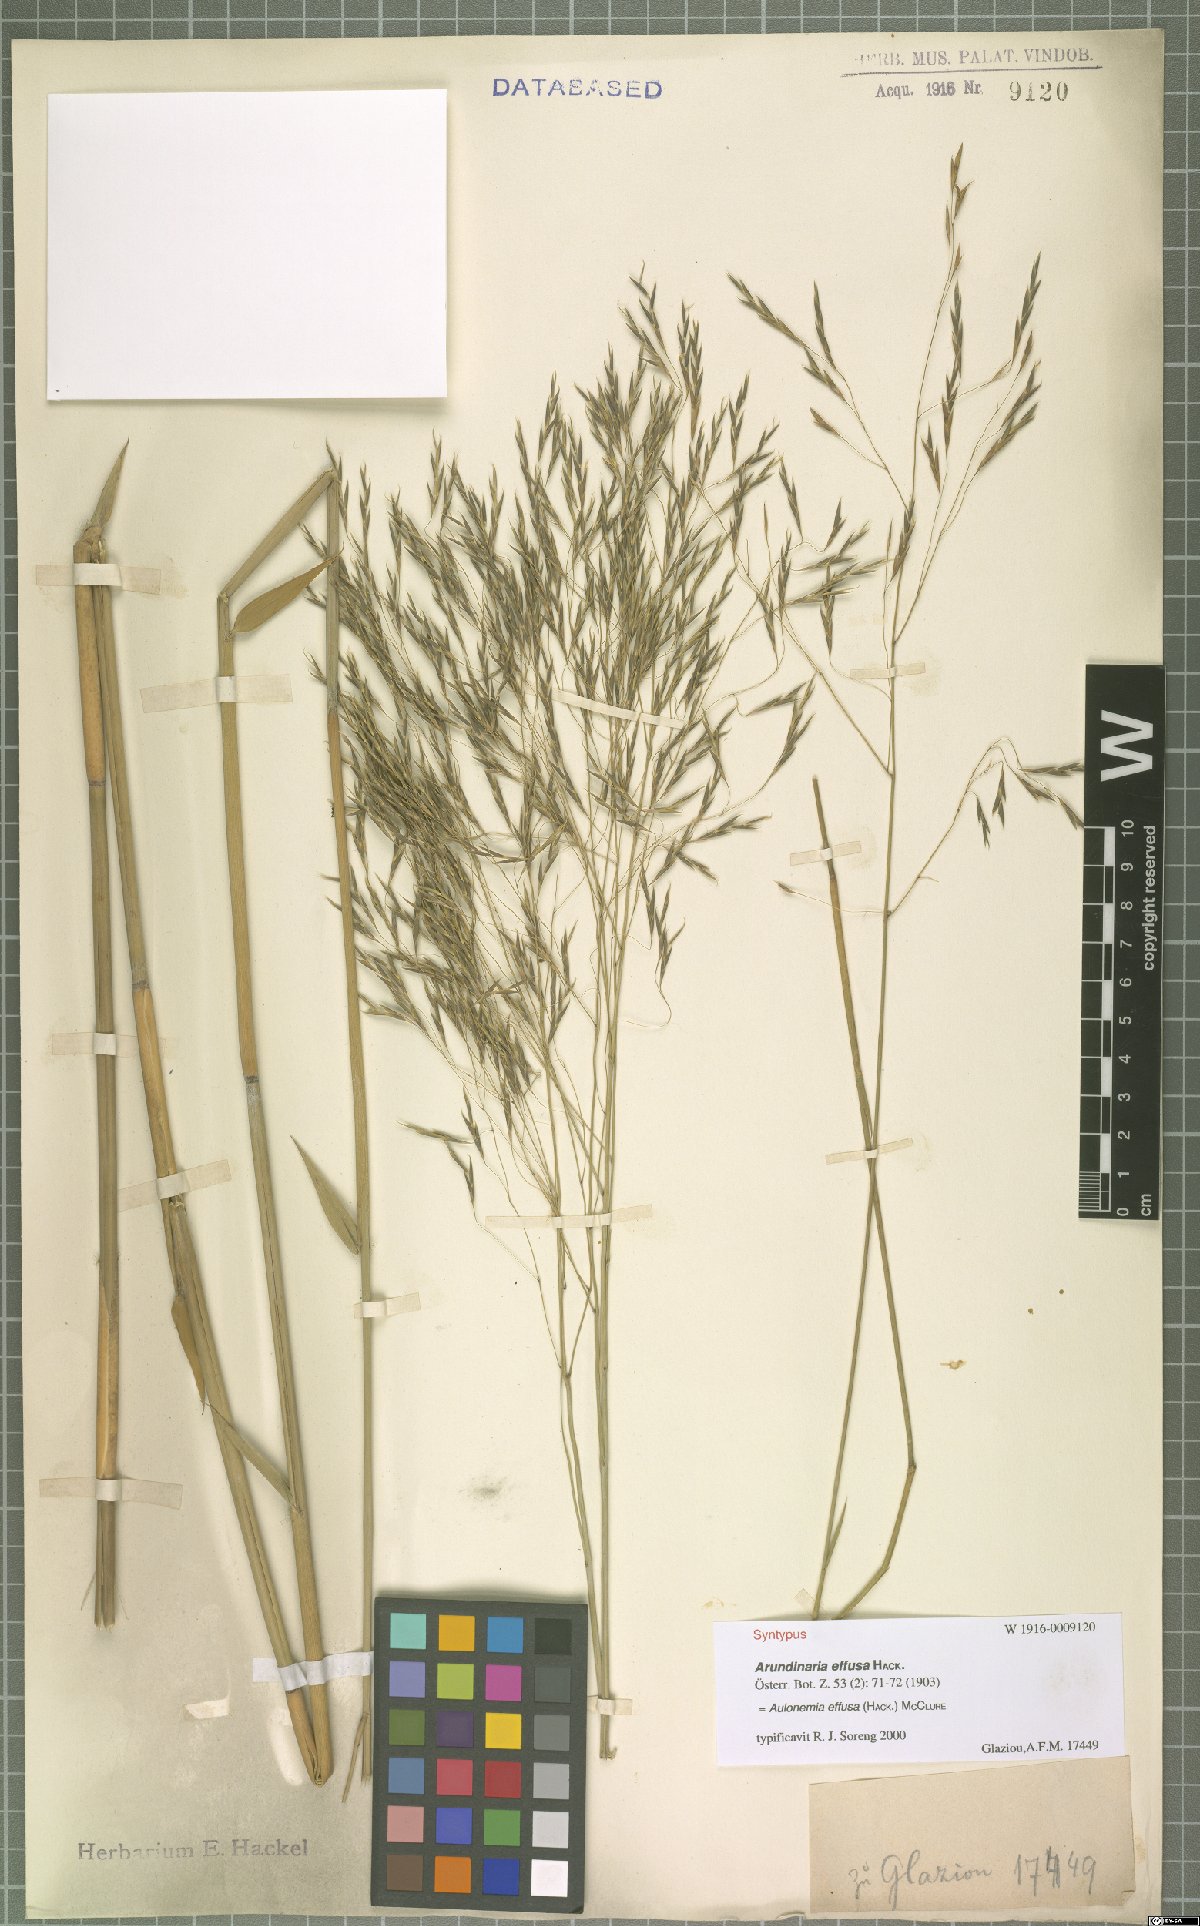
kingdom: Plantae
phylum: Tracheophyta
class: Liliopsida
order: Poales
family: Poaceae
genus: Aulonemia
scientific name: Aulonemia effusa
